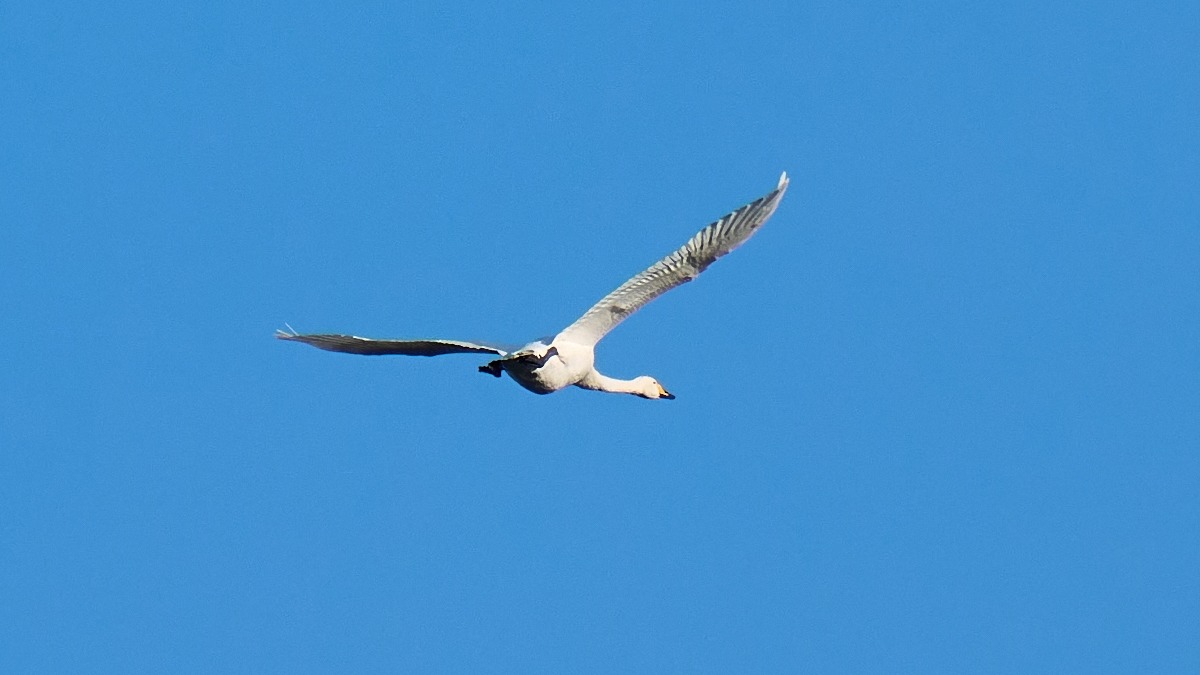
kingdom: Animalia
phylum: Chordata
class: Aves
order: Anseriformes
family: Anatidae
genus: Cygnus
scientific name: Cygnus cygnus
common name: Sangsvane
